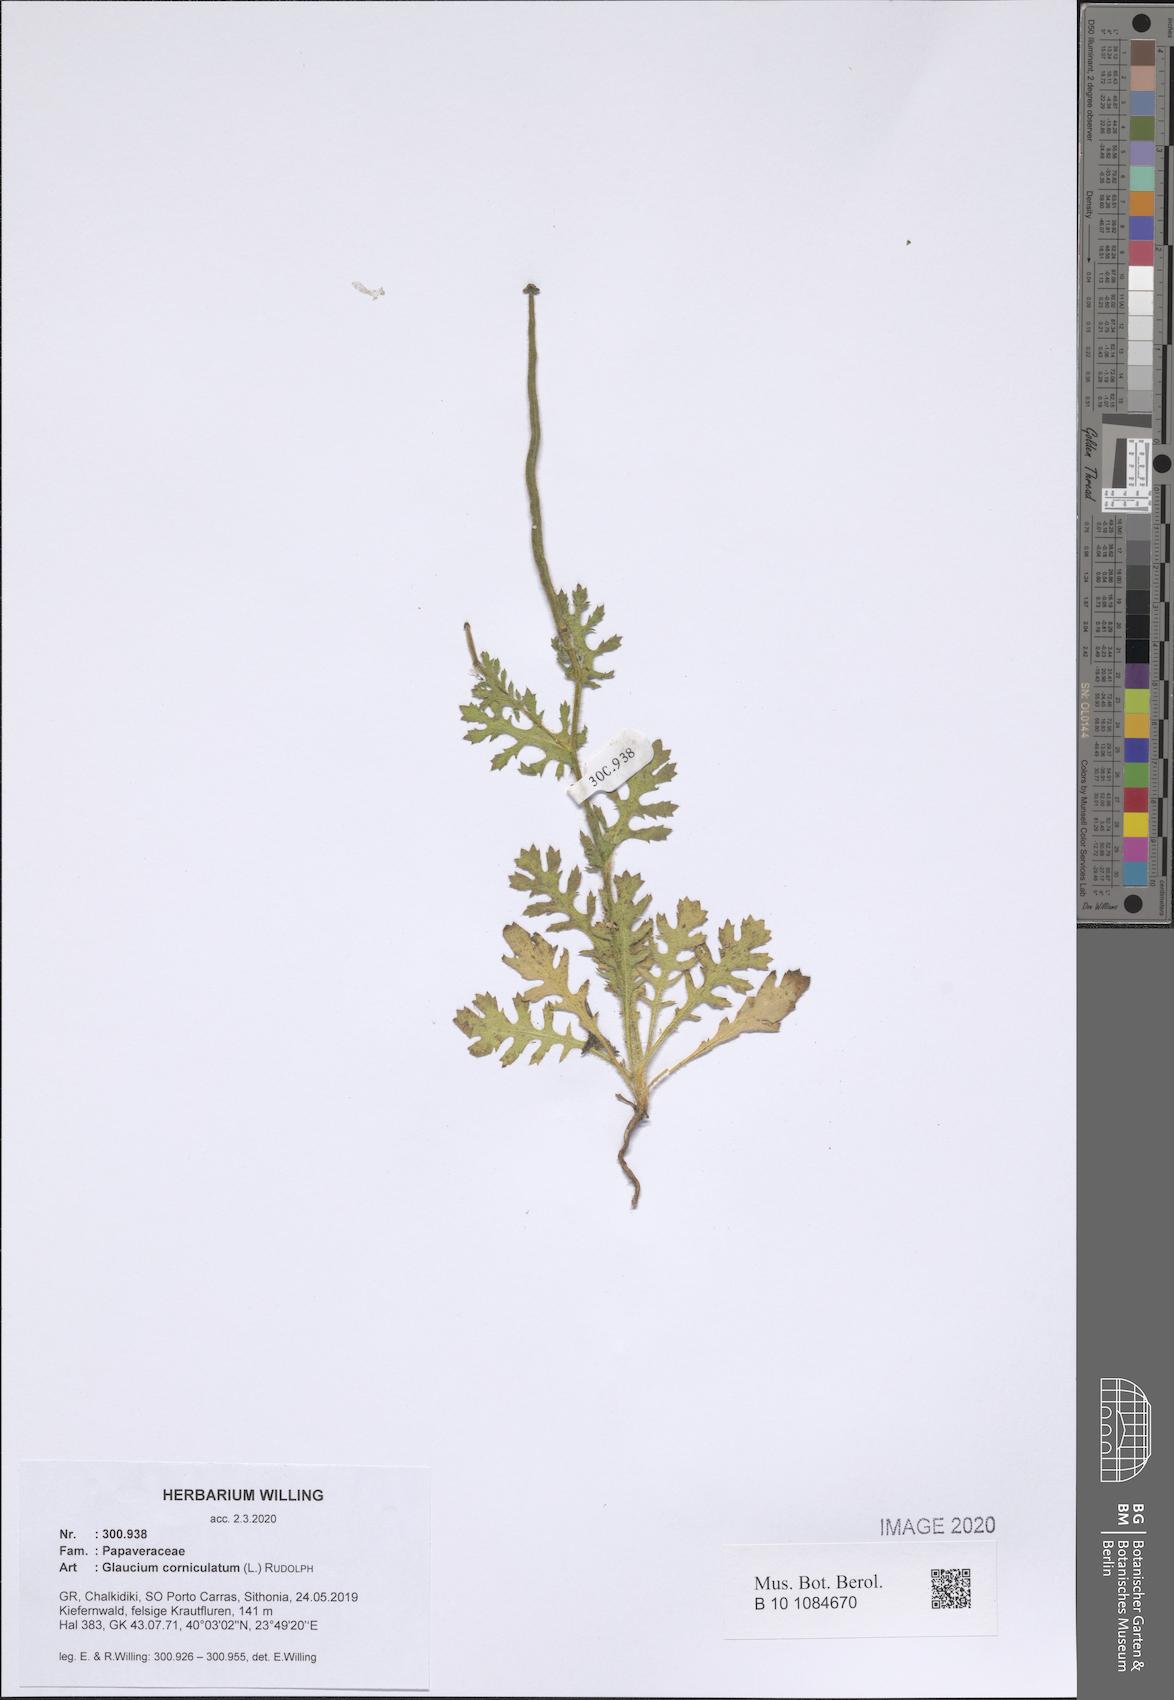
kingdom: Plantae
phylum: Tracheophyta
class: Magnoliopsida
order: Ranunculales
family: Papaveraceae
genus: Glaucium
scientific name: Glaucium corniculatum
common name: Red horned-poppy
